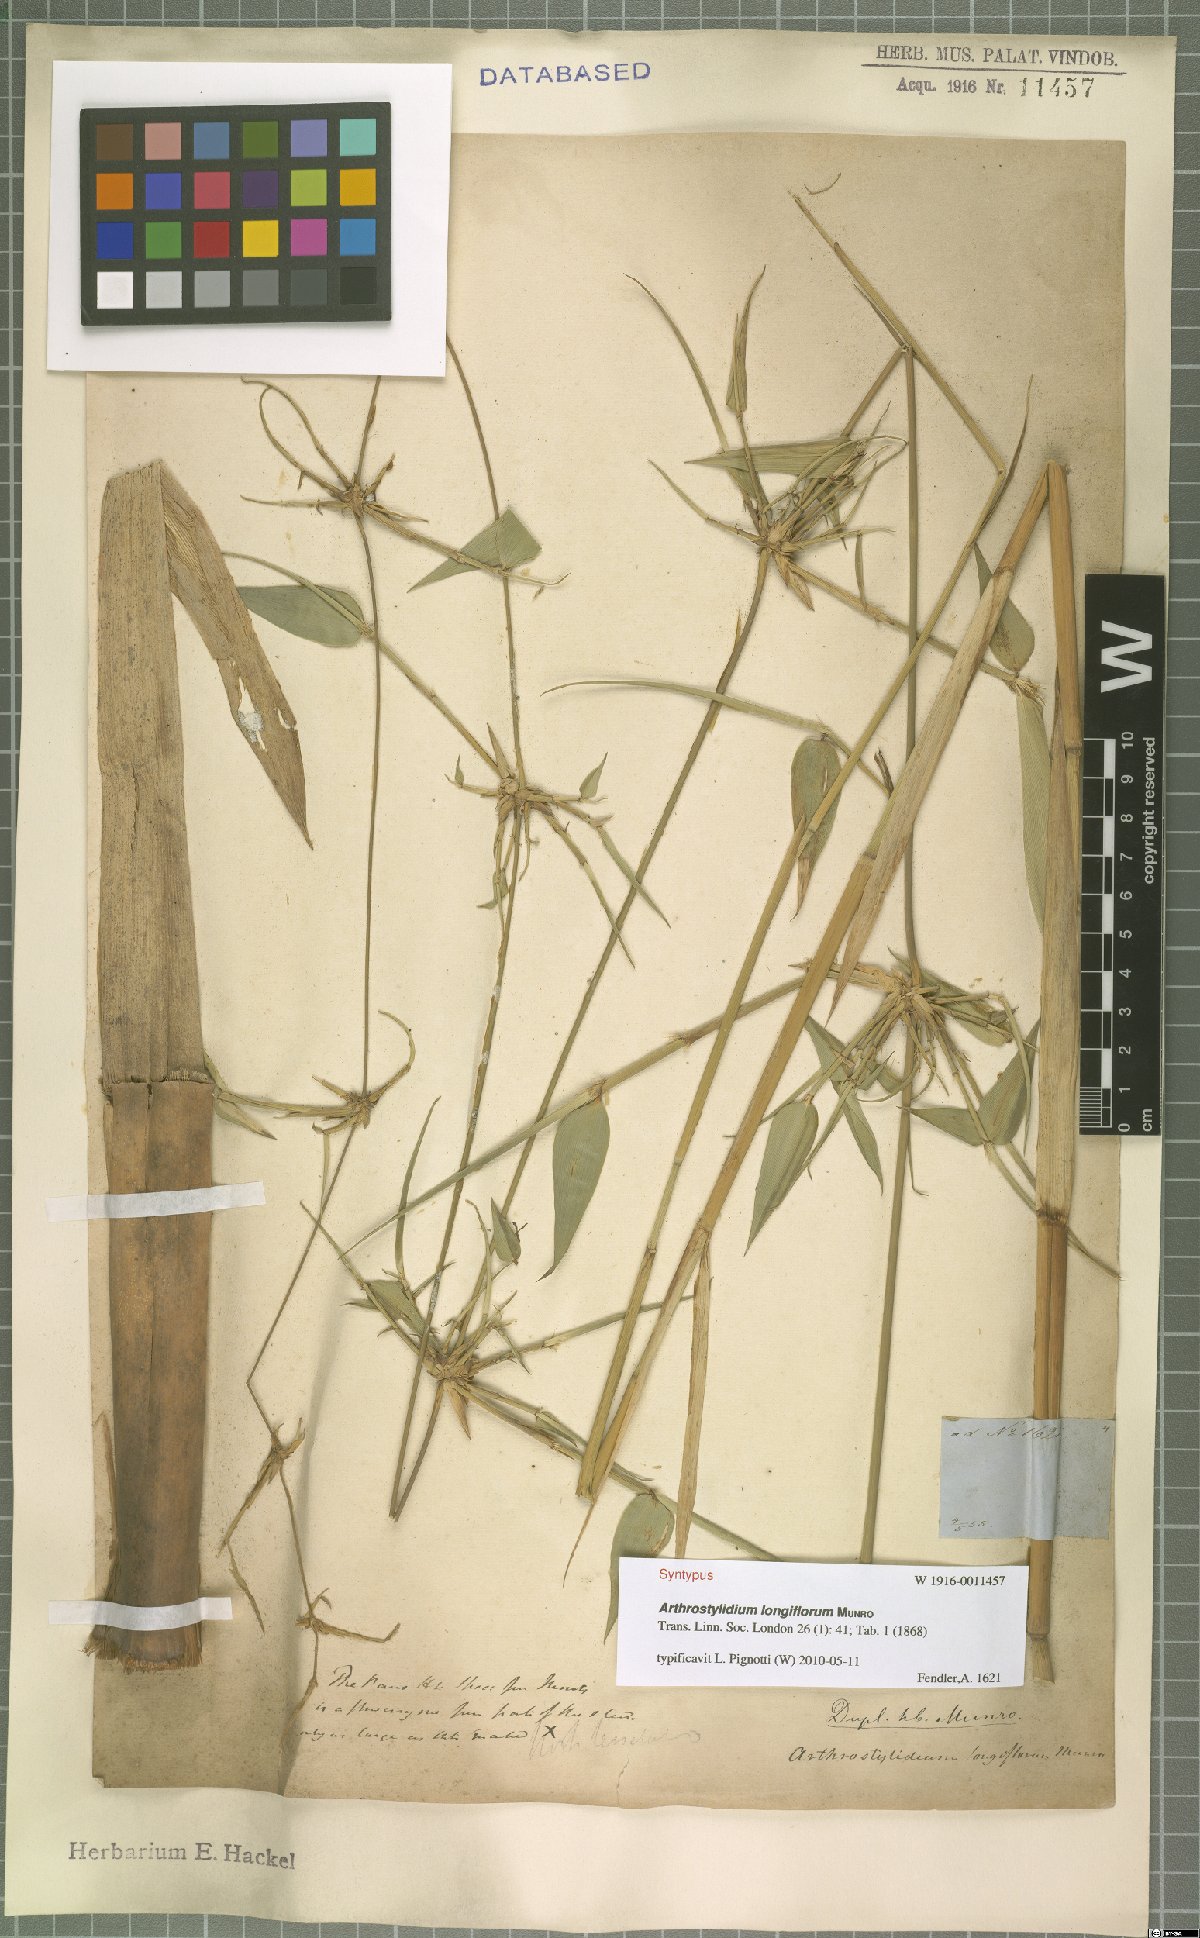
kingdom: Plantae
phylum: Tracheophyta
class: Liliopsida
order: Poales
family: Poaceae
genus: Arthrostylidium
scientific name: Arthrostylidium longiflorum
